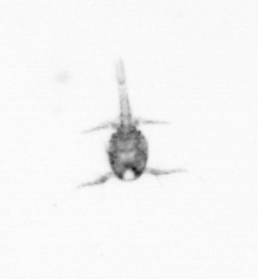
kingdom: Animalia
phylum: Arthropoda
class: Copepoda
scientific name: Copepoda
